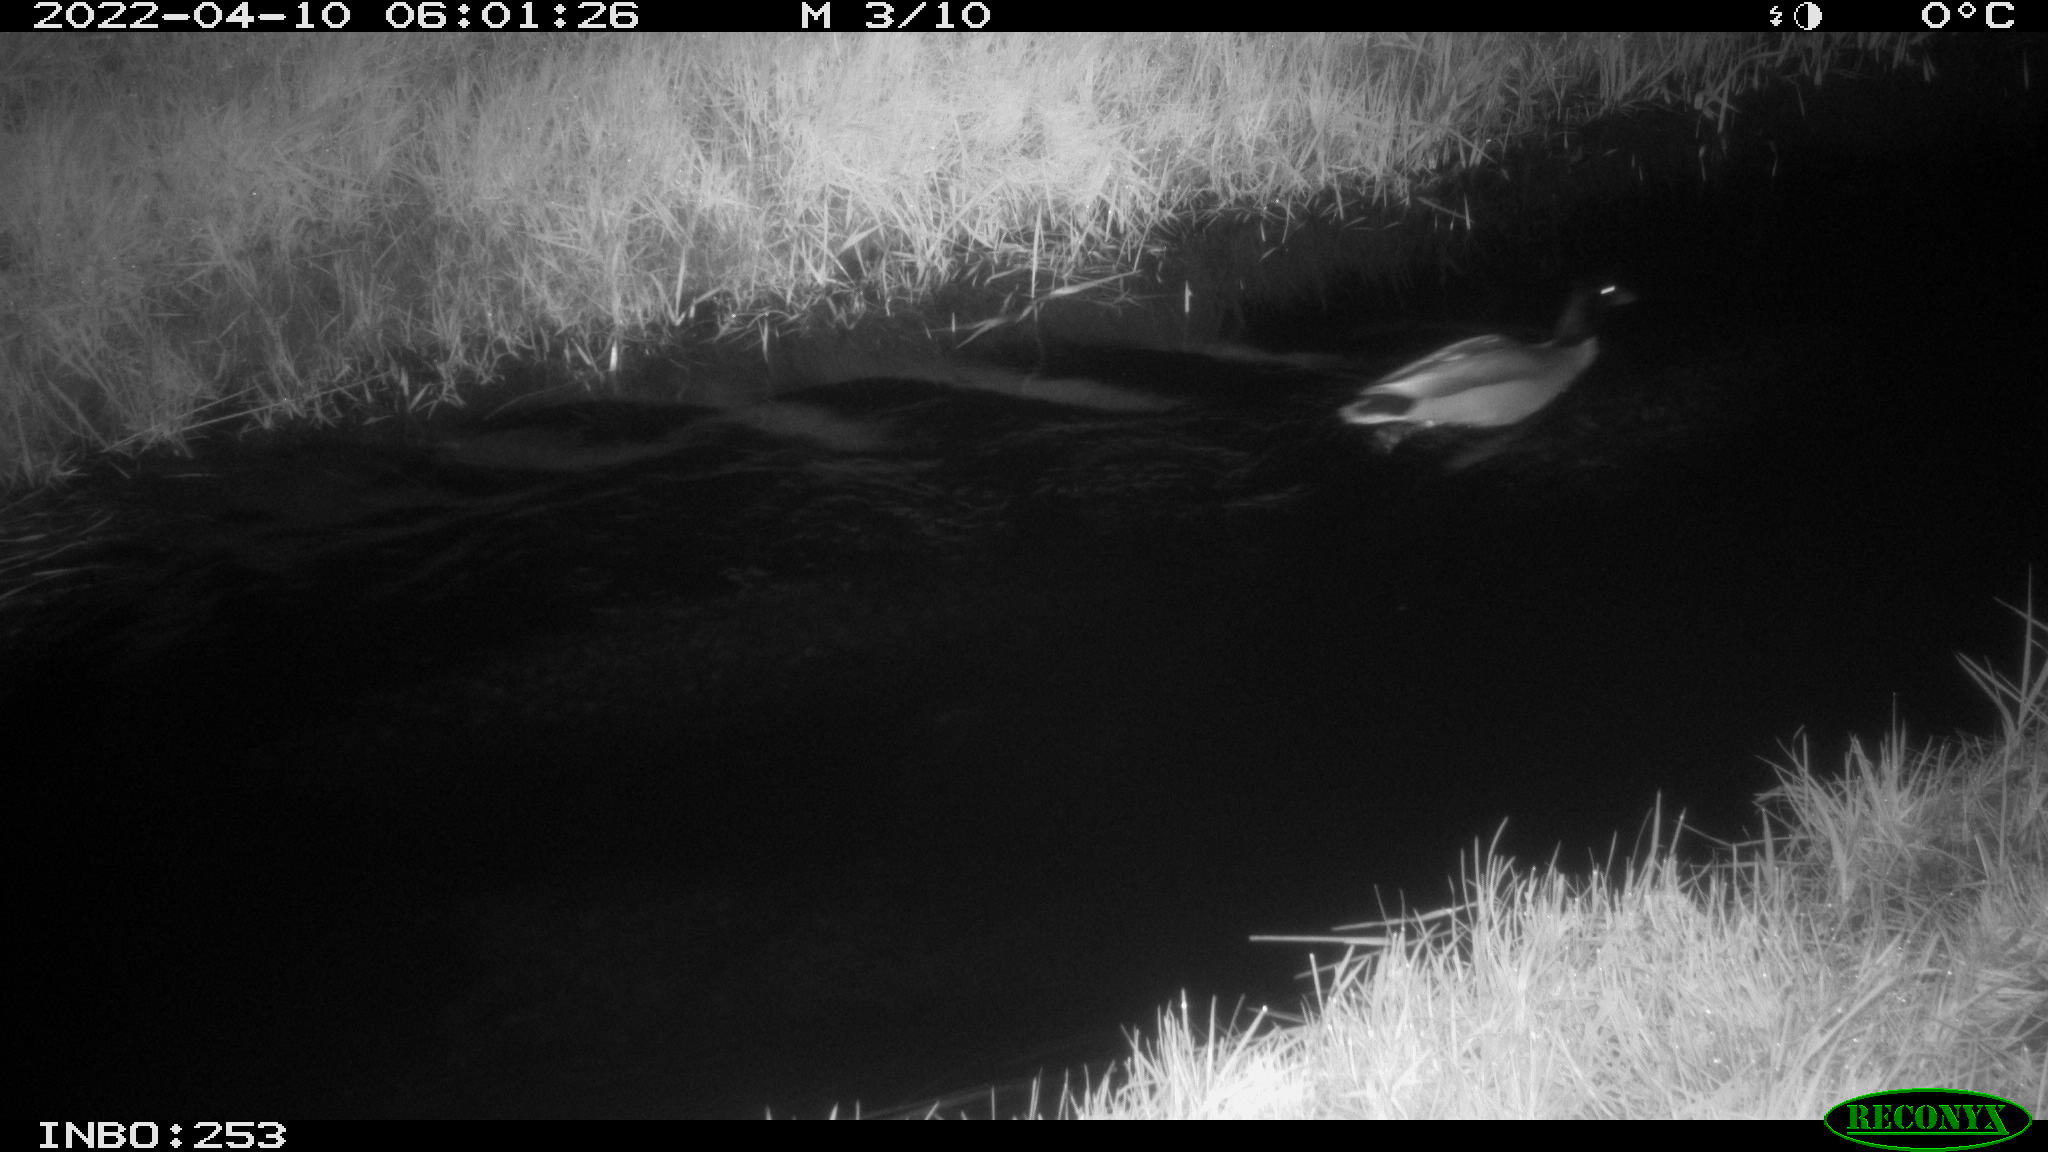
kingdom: Animalia
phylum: Chordata
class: Aves
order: Anseriformes
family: Anatidae
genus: Anas
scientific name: Anas platyrhynchos
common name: Mallard
